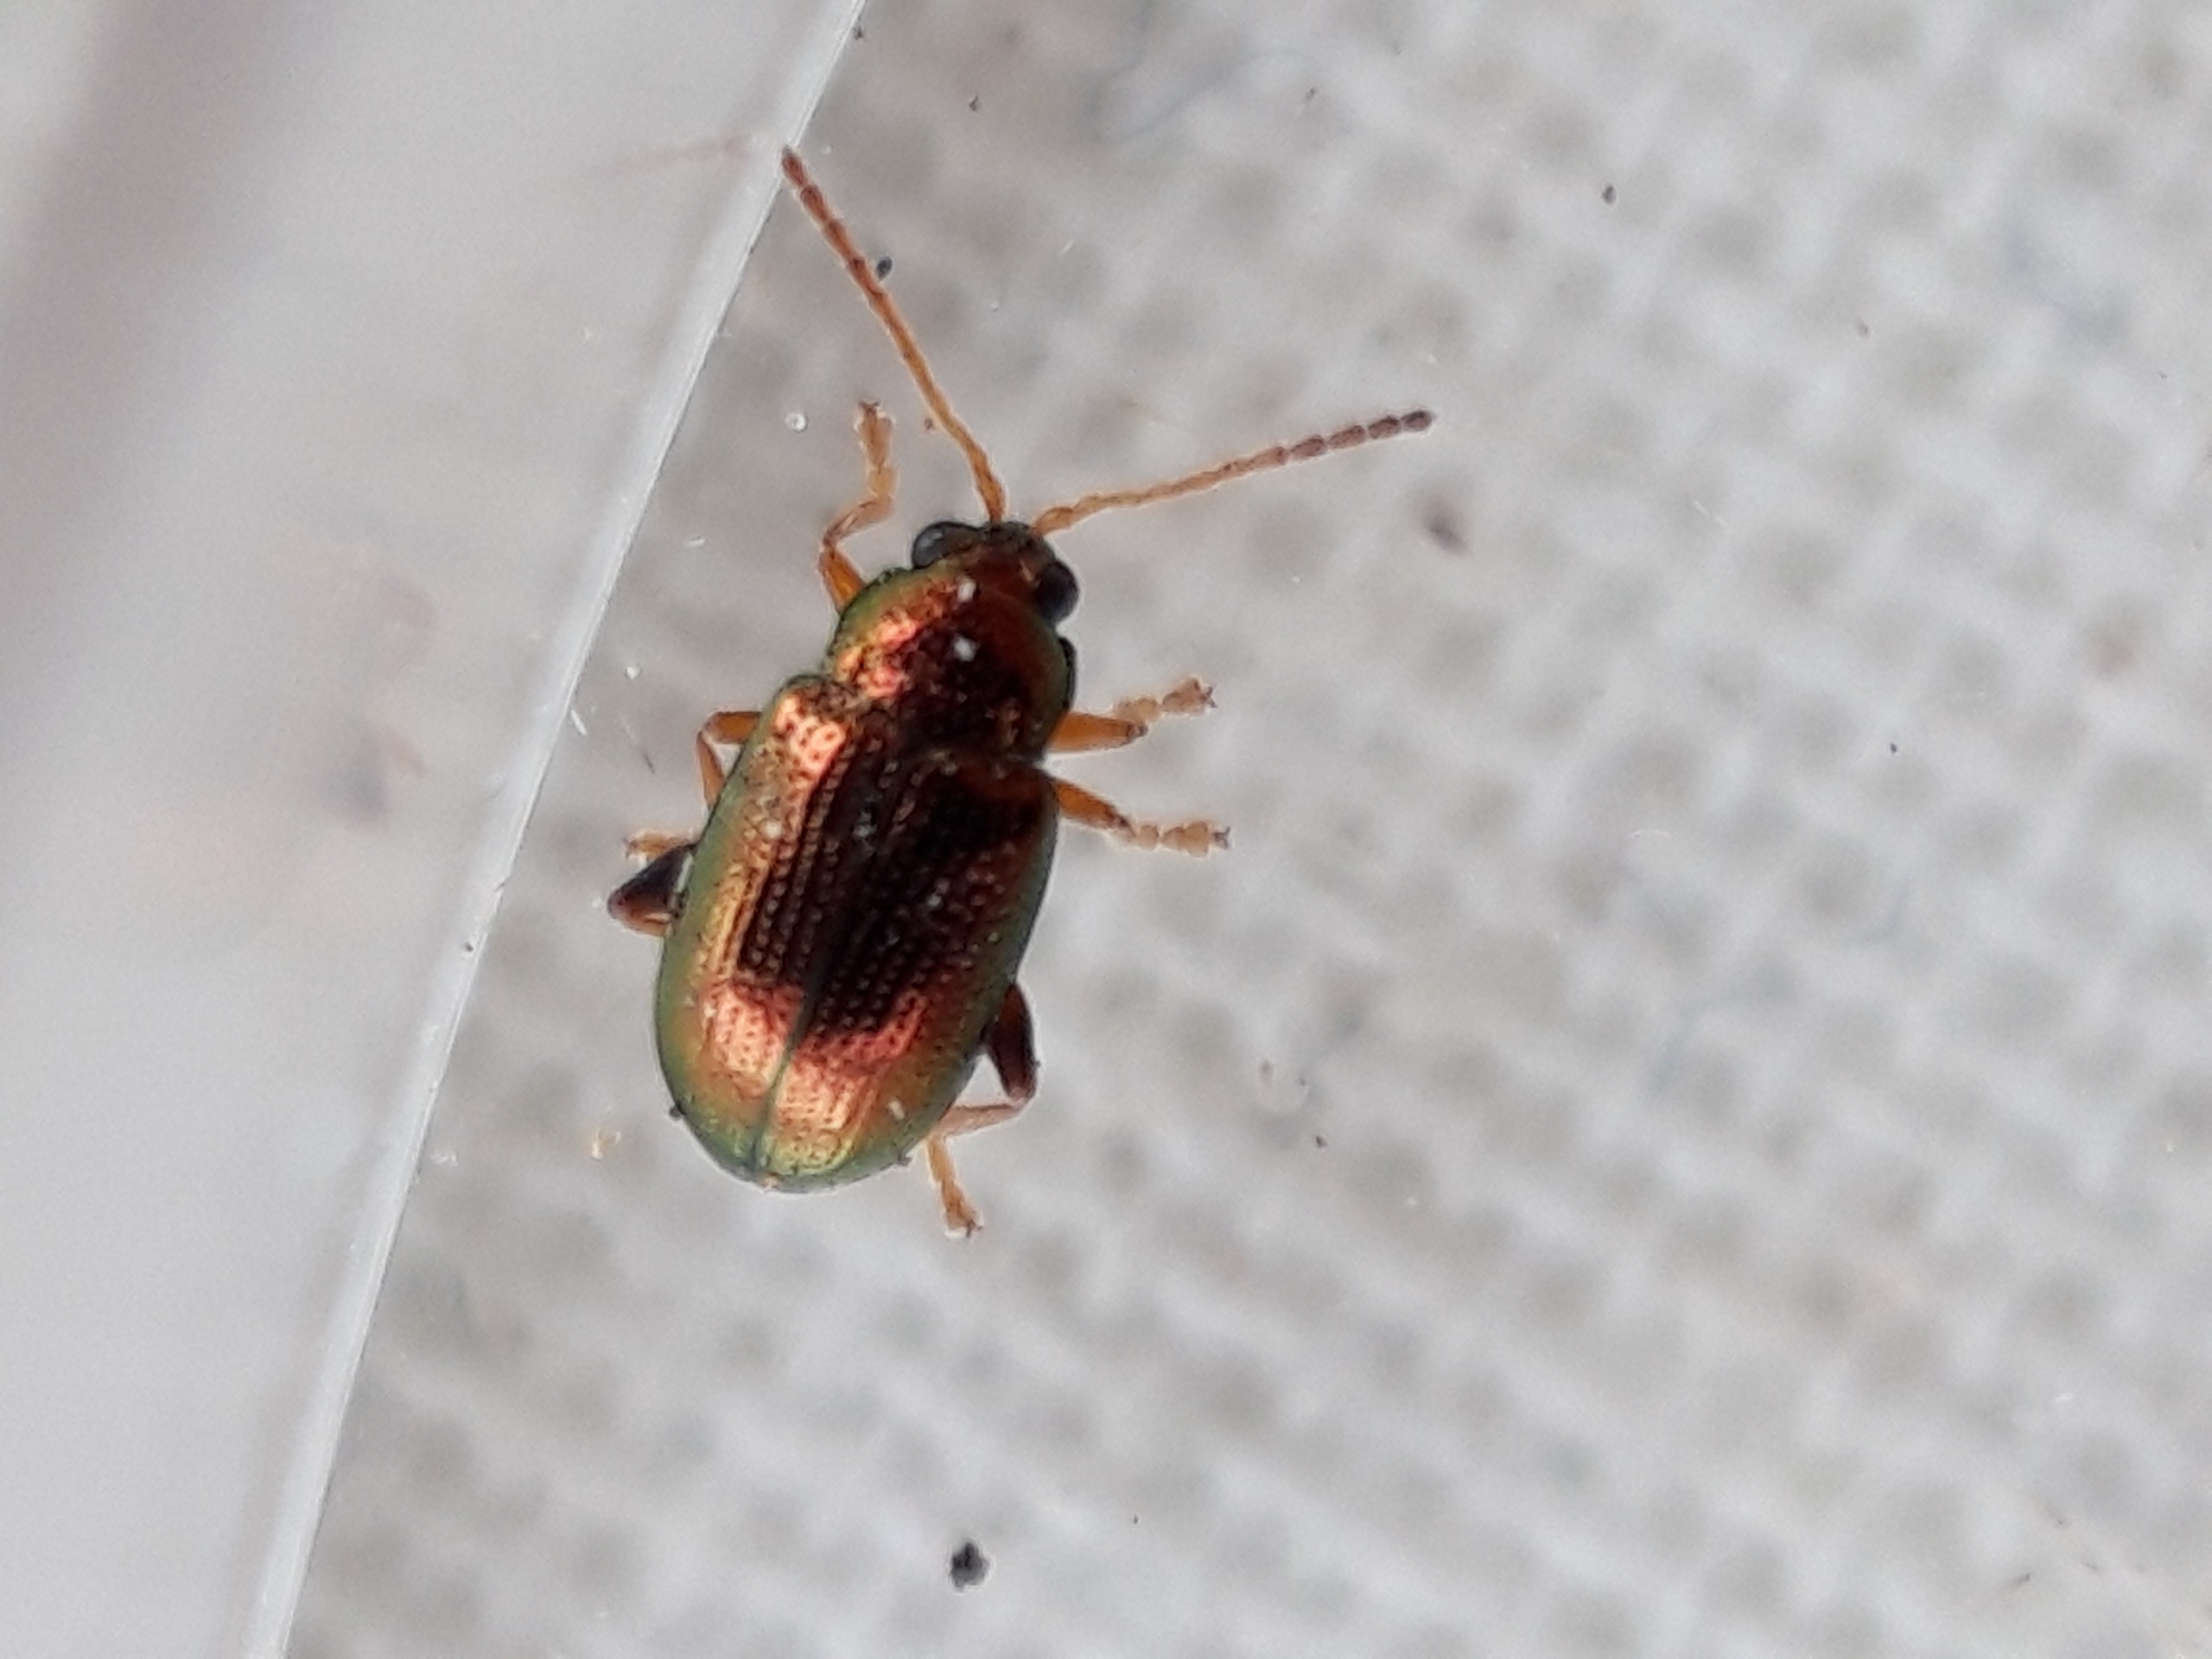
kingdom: Animalia
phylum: Arthropoda
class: Insecta
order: Coleoptera
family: Chrysomelidae
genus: Crepidodera
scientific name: Crepidodera fulvicornis
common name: Lille pilejordloppe
